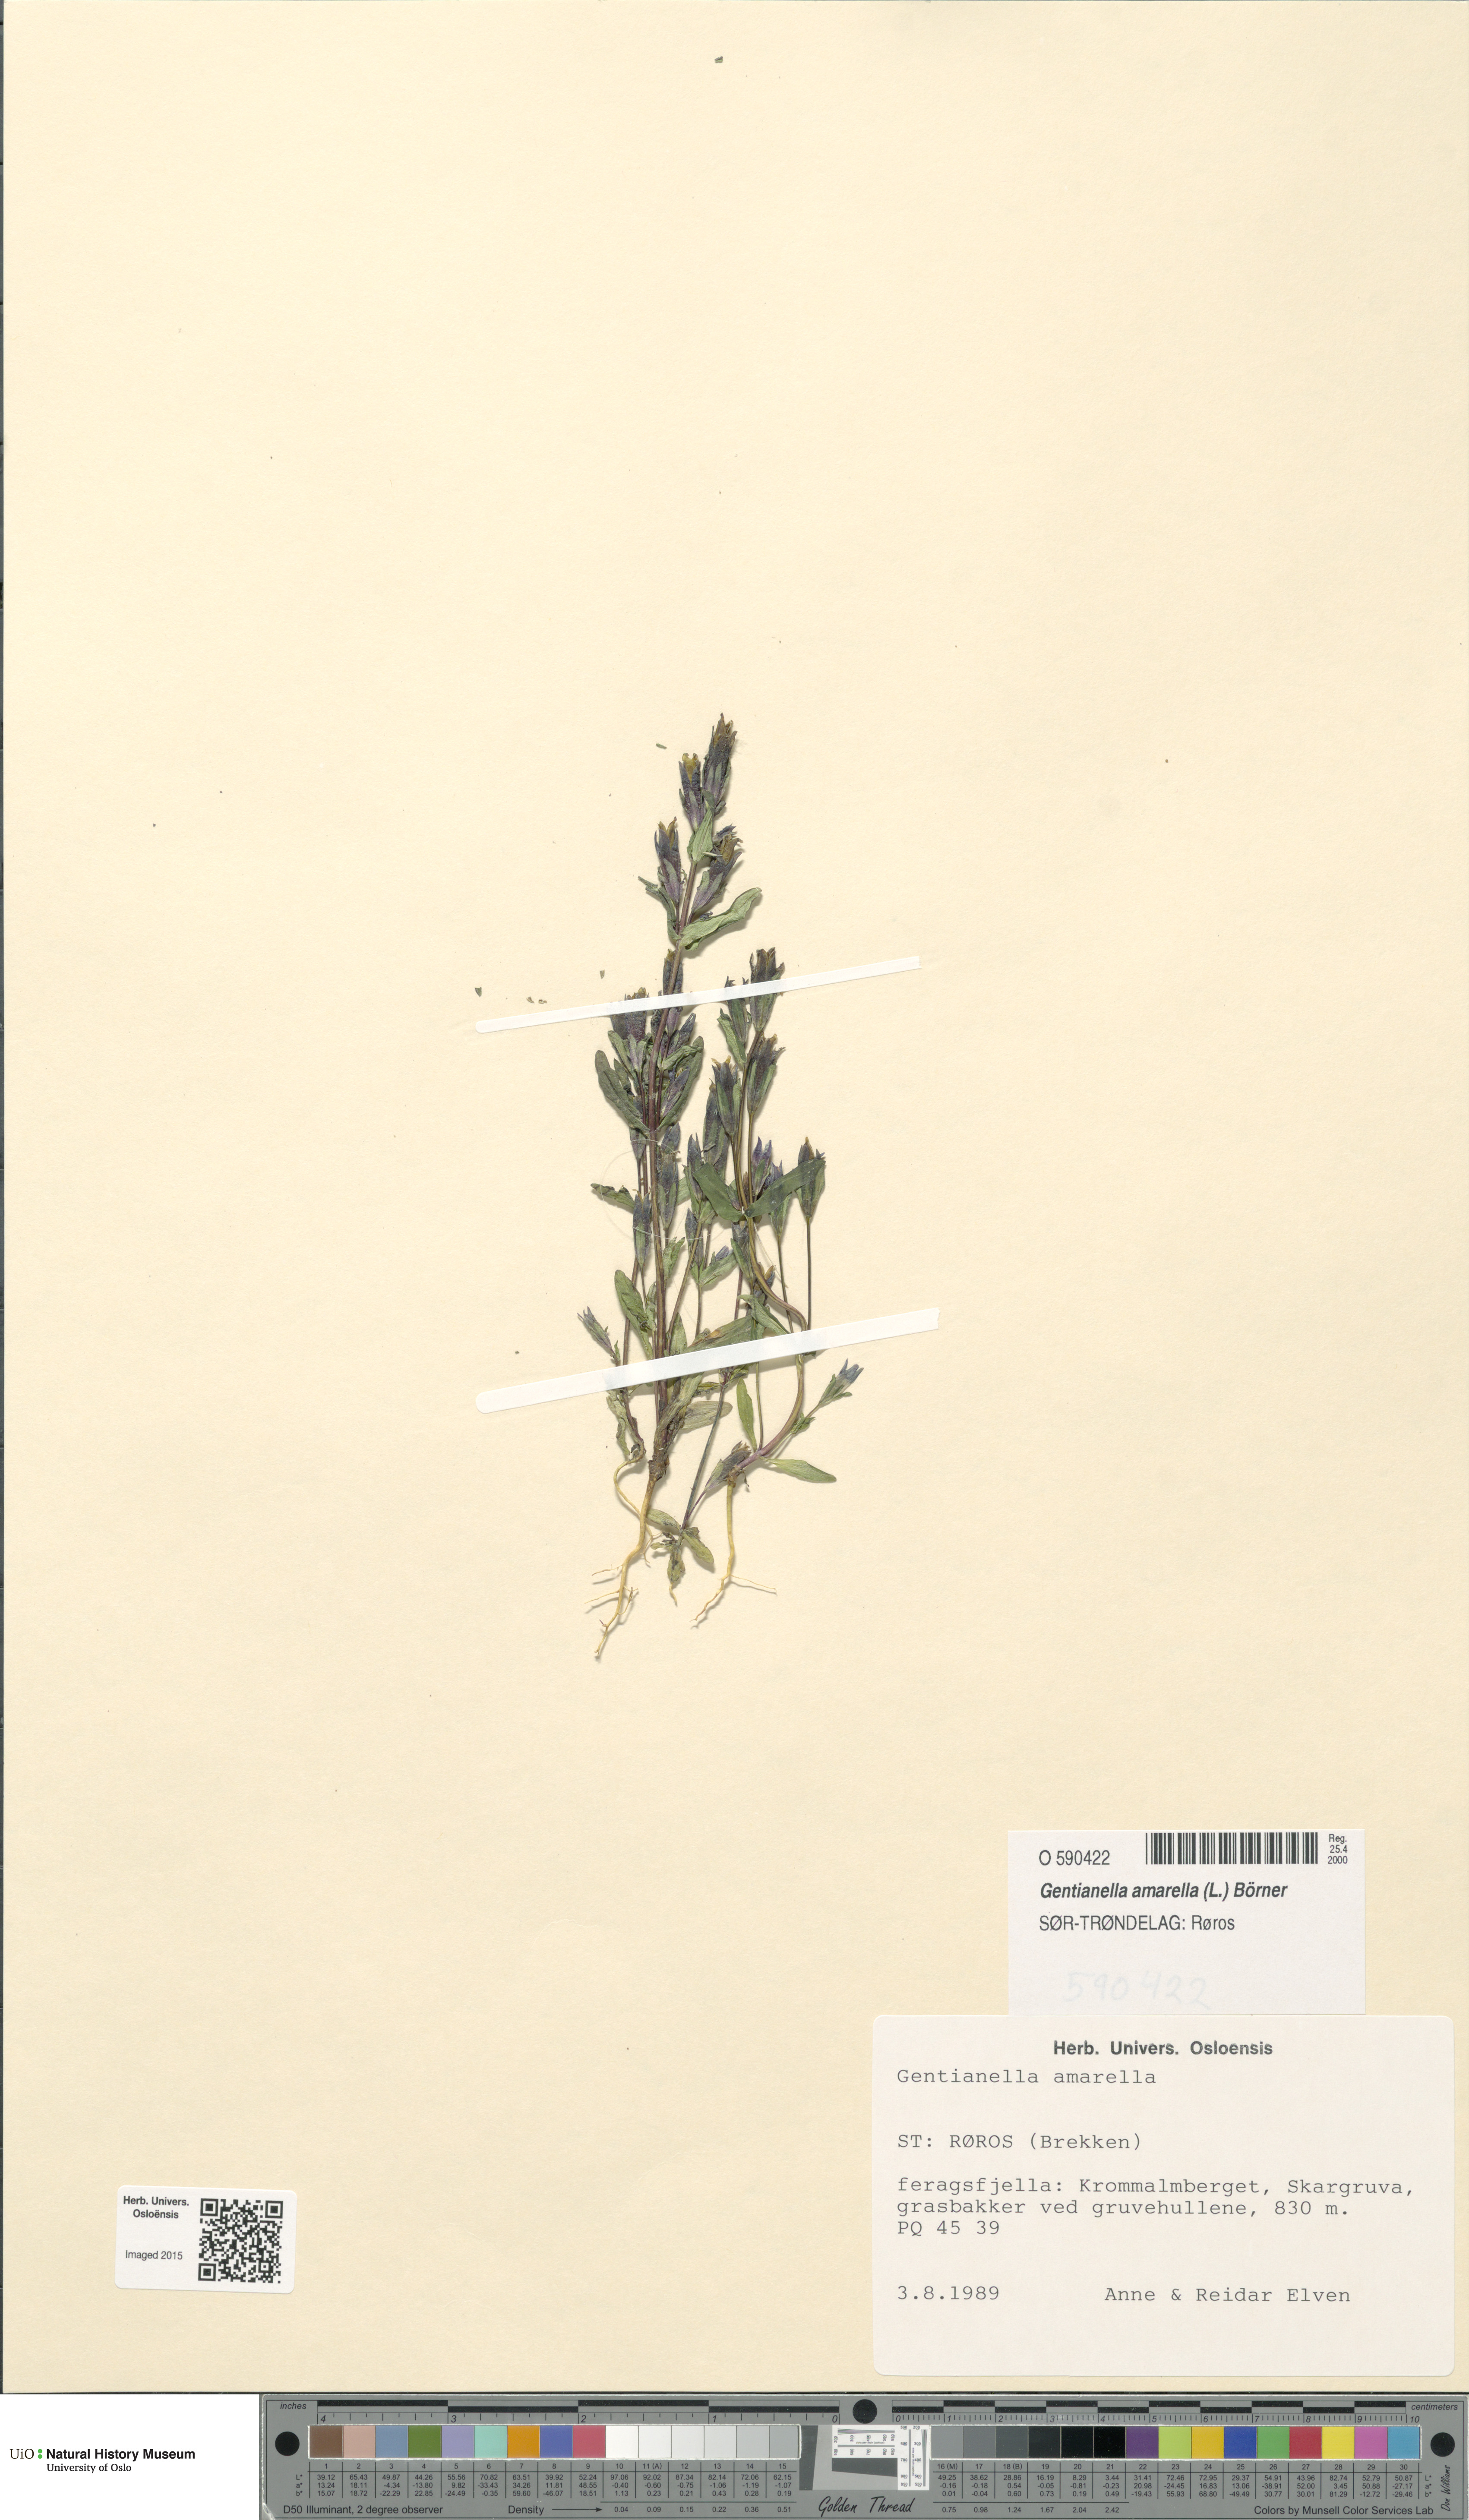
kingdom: Plantae
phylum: Tracheophyta
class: Magnoliopsida
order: Gentianales
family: Gentianaceae
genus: Gentianella
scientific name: Gentianella amarella
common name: Autumn gentian
